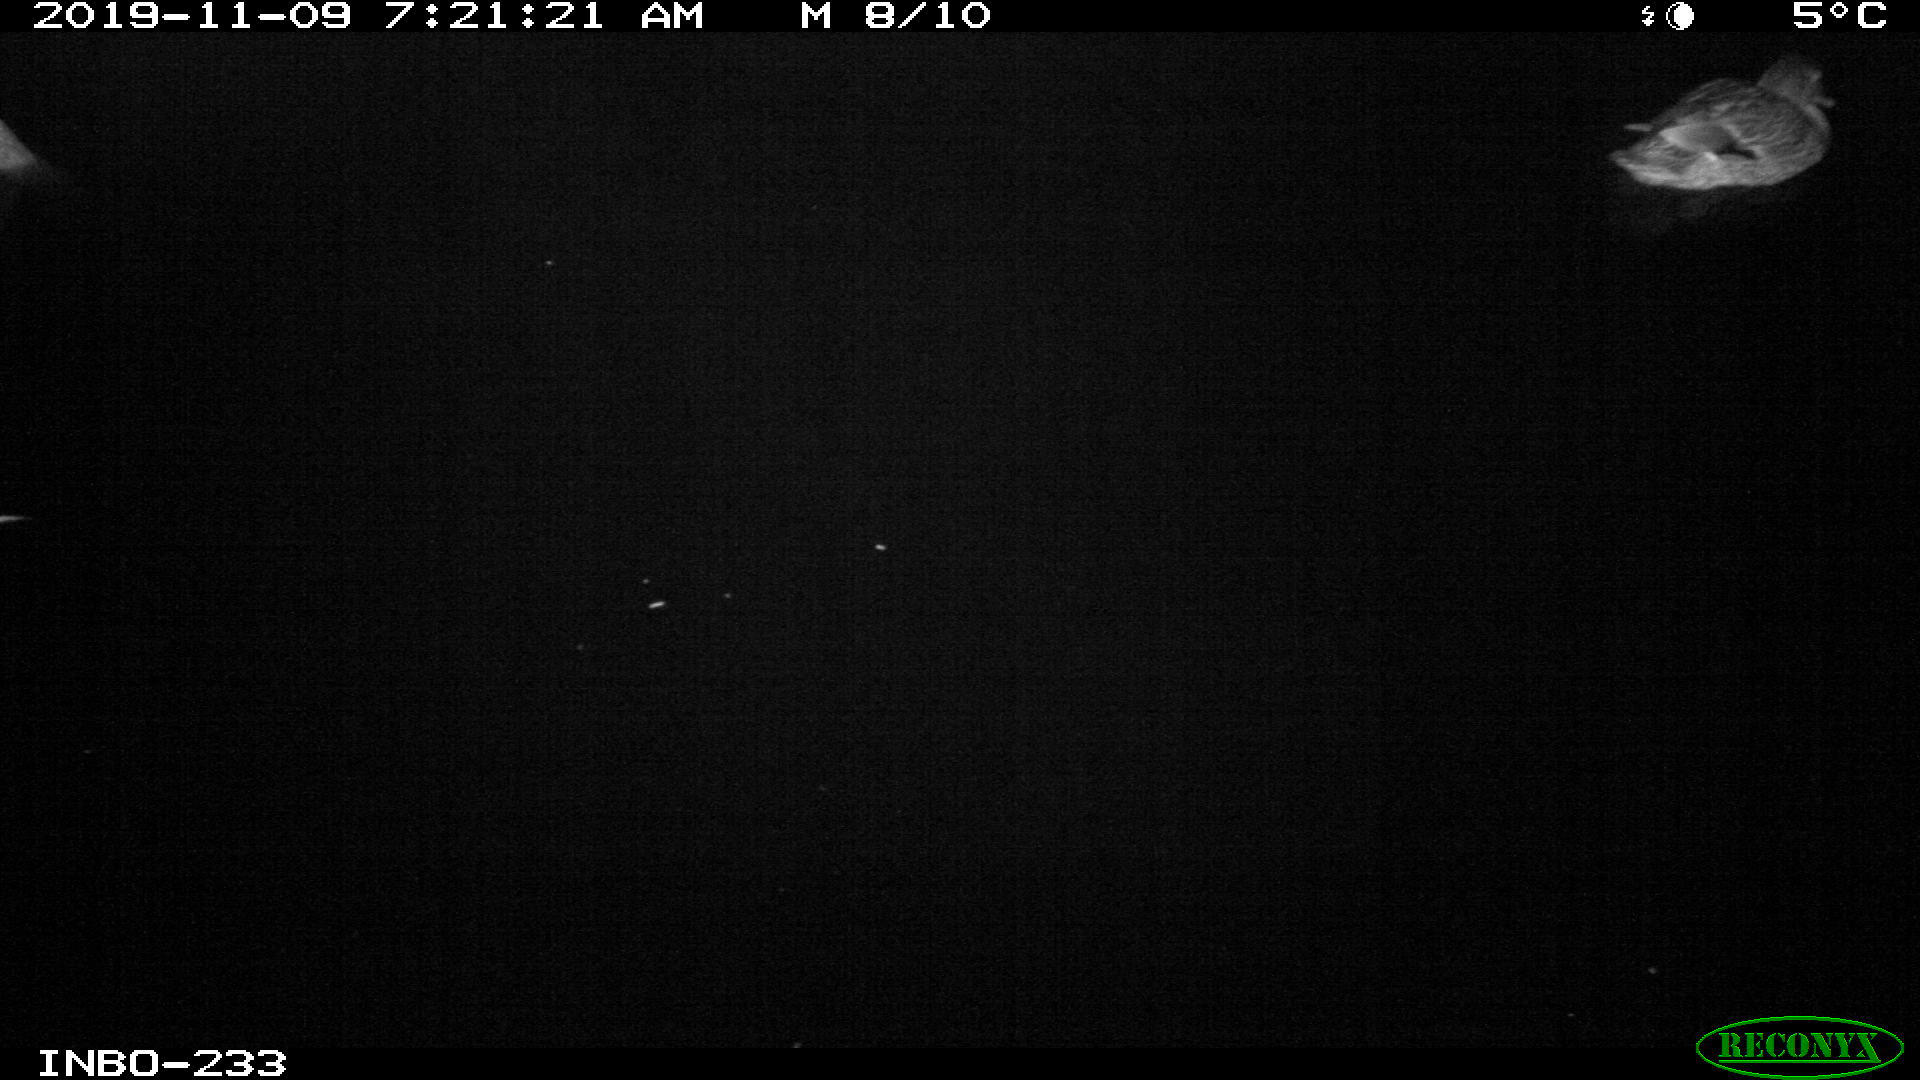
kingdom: Animalia
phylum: Chordata
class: Aves
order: Anseriformes
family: Anatidae
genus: Anas
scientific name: Anas platyrhynchos
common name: Mallard
